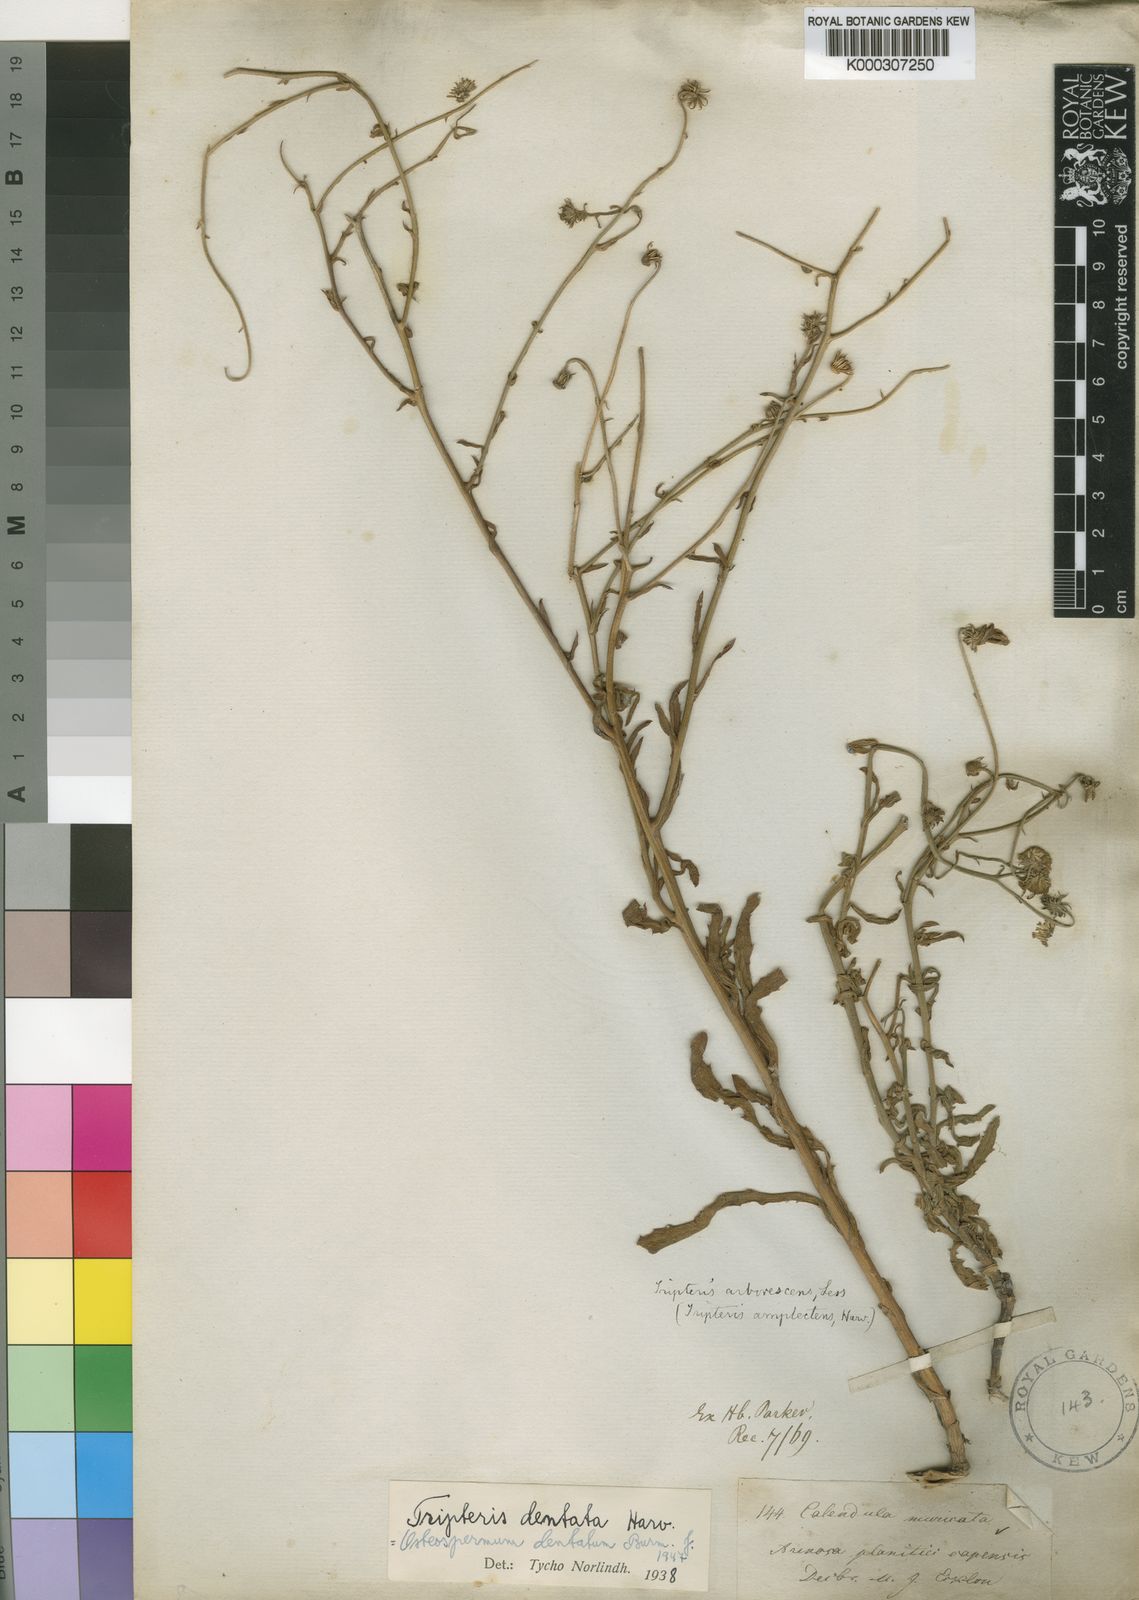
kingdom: Plantae
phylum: Tracheophyta
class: Magnoliopsida
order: Asterales
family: Asteraceae
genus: Osteospermum
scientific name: Osteospermum dentatum
